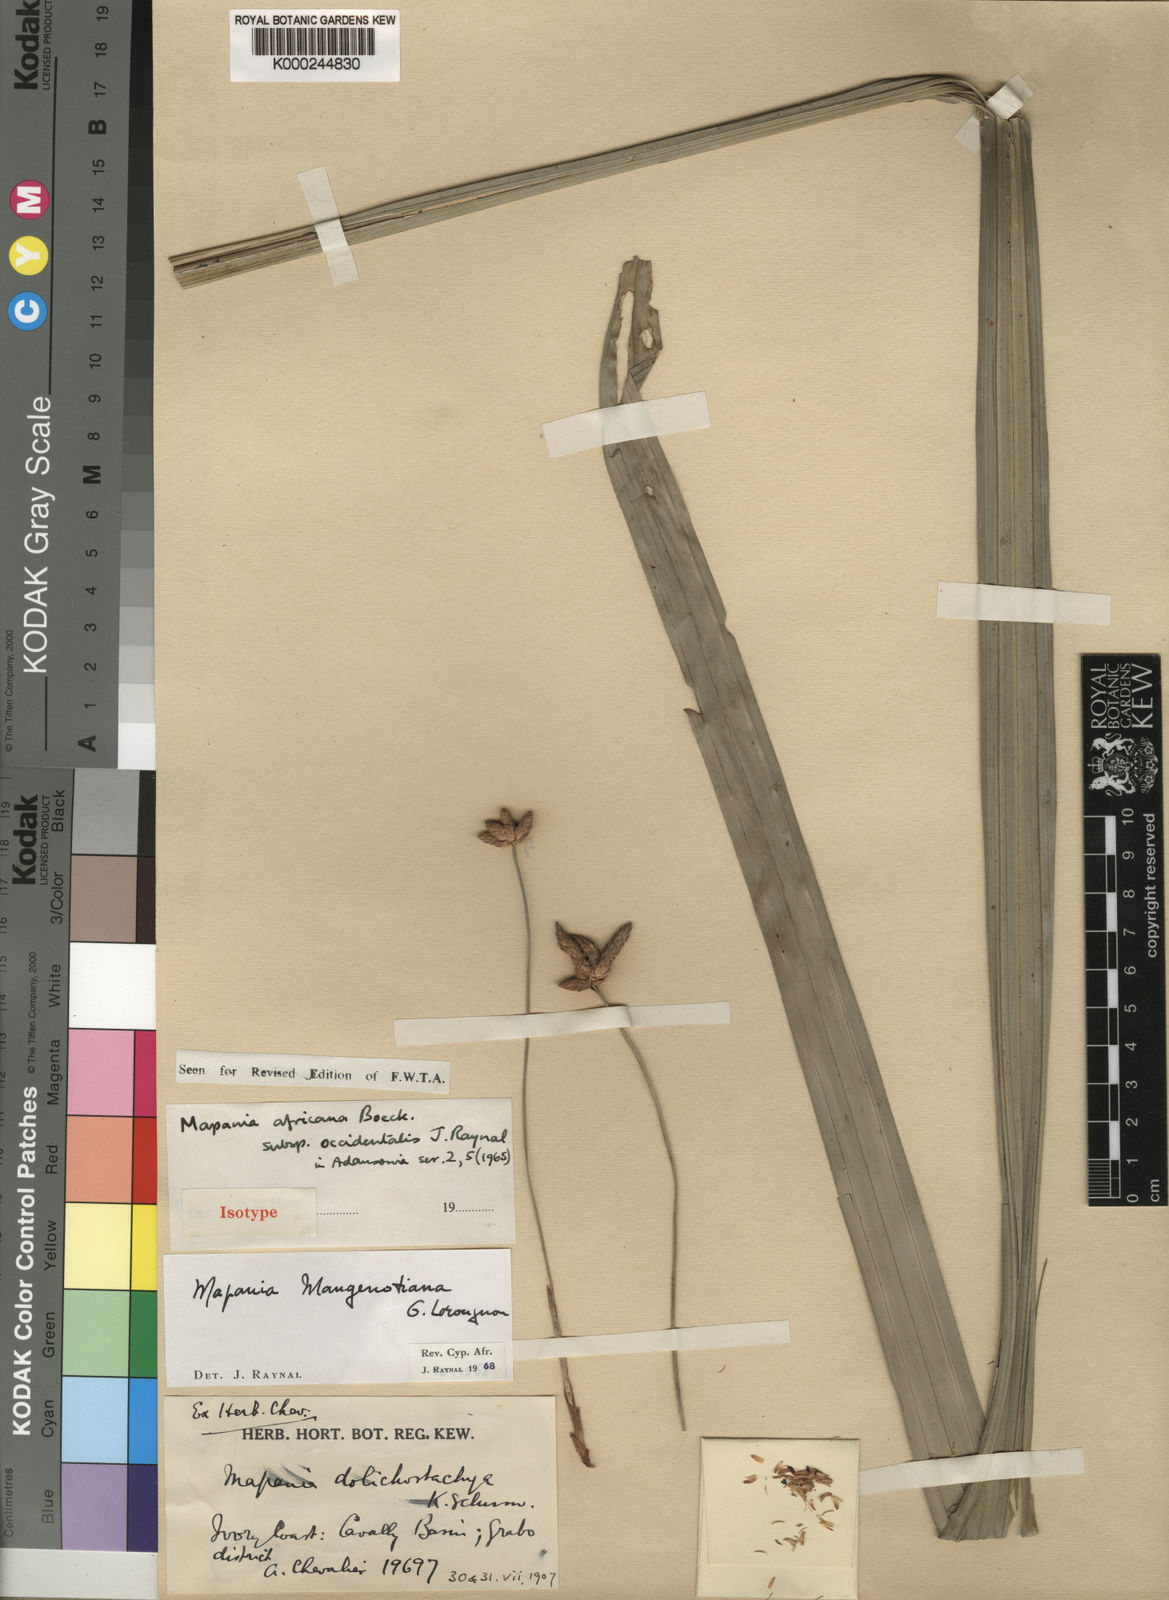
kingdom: Plantae
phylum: Tracheophyta
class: Liliopsida
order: Poales
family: Cyperaceae
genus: Mapania
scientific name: Mapania mangenotiana
